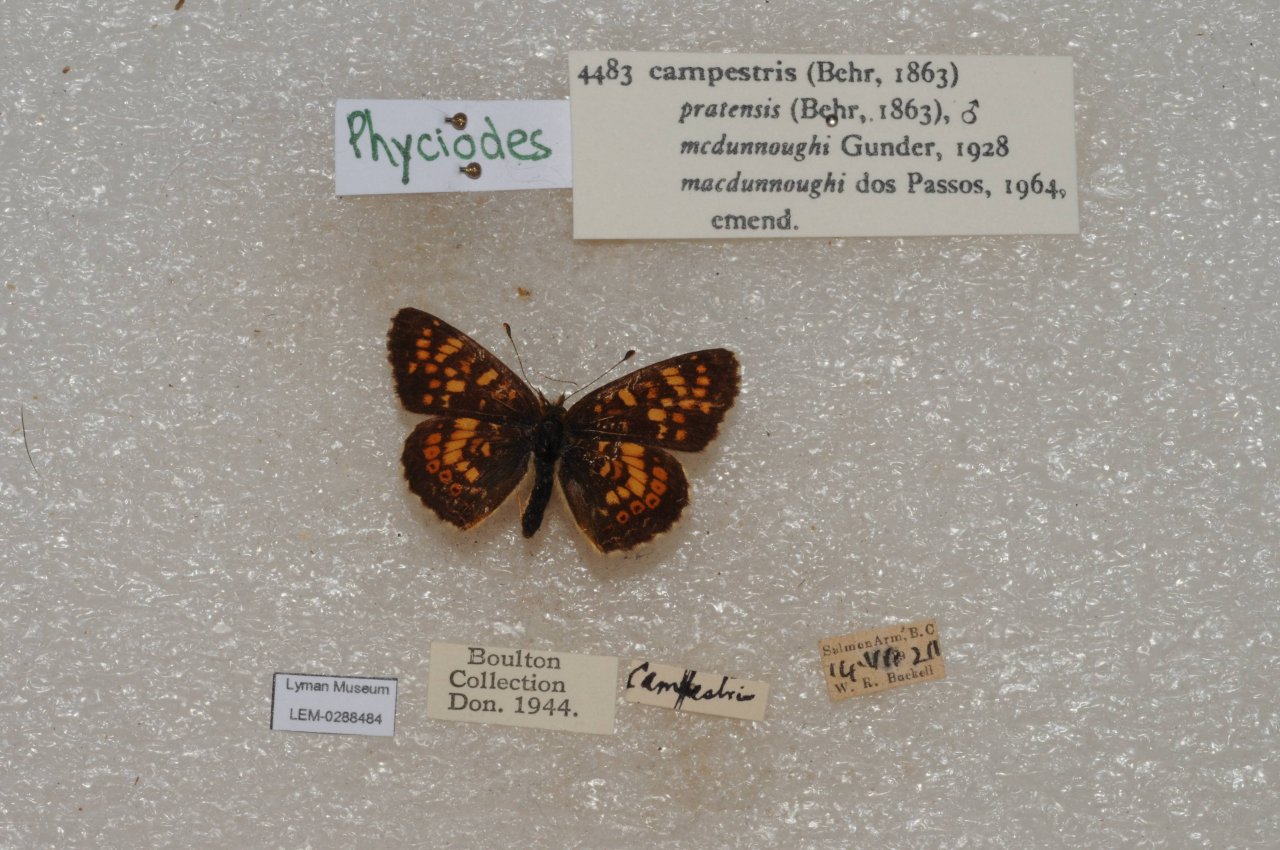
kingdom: Animalia
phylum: Arthropoda
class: Insecta
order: Lepidoptera
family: Nymphalidae
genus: Phyciodes
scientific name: Phyciodes tharos
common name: Field Crescent
